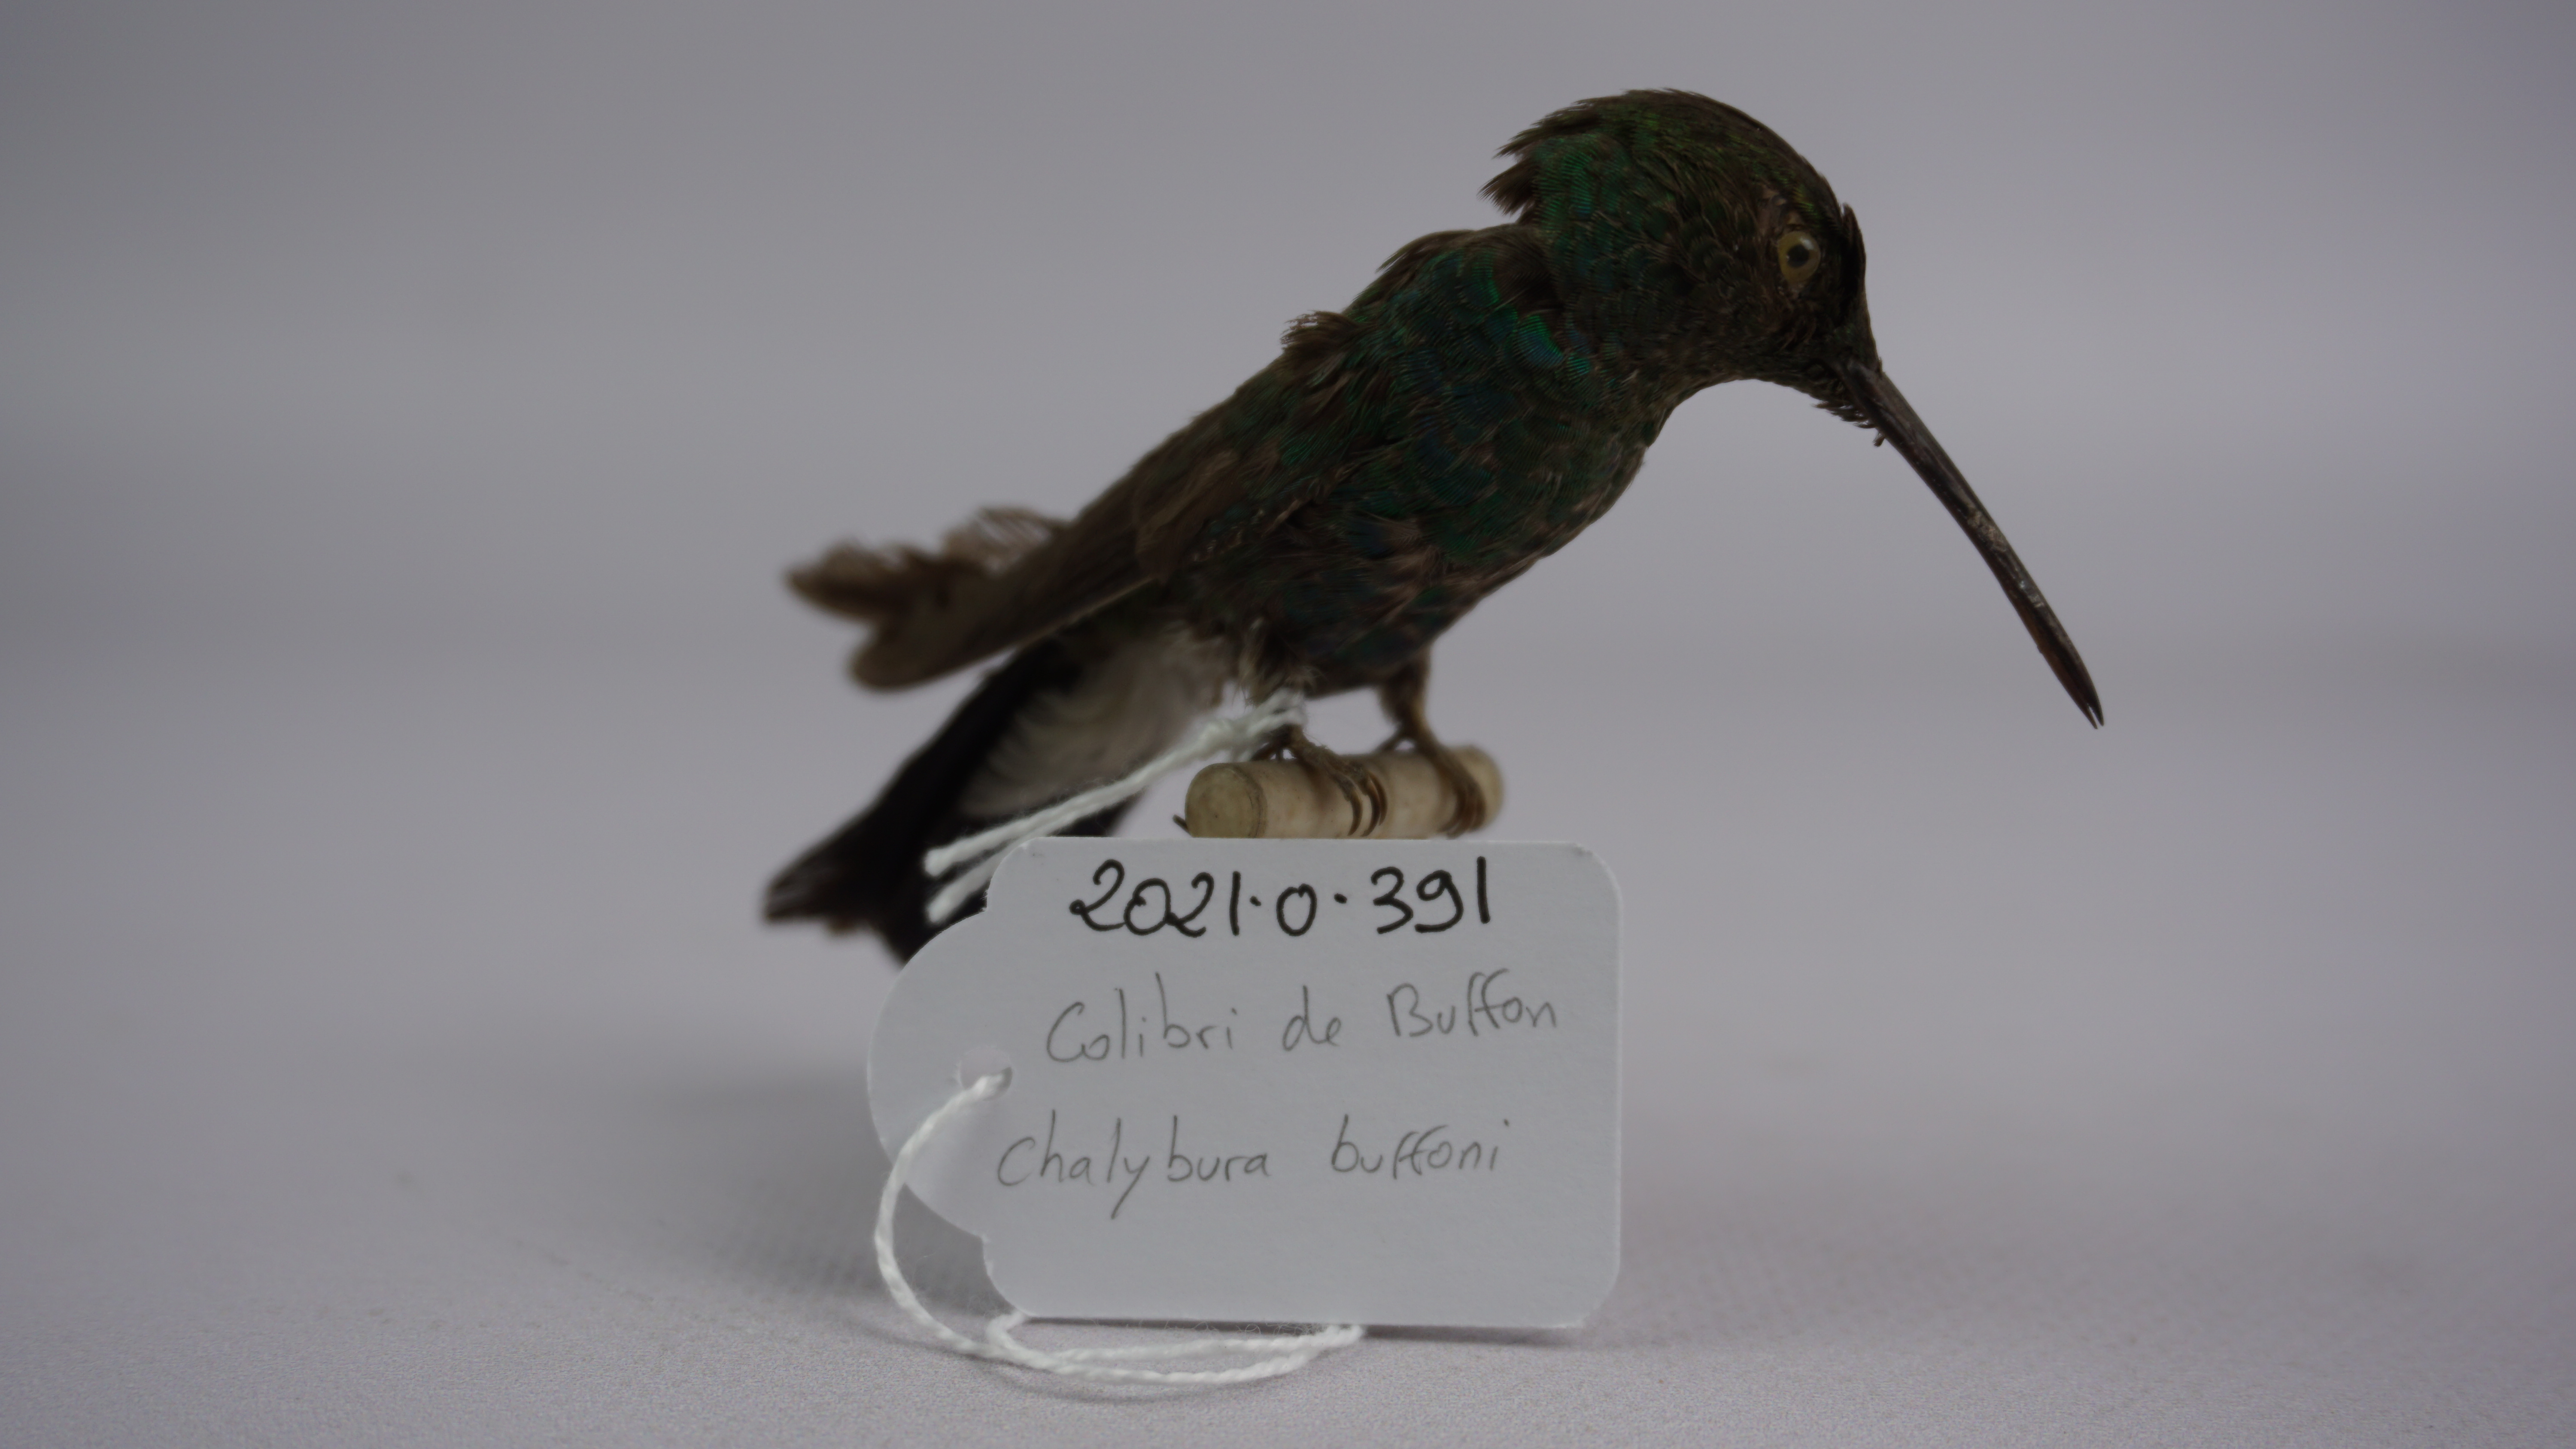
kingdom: Animalia
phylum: Chordata
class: Aves
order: Apodiformes
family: Trochilidae
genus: Chalybura
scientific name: Chalybura buffonii
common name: White-vented plumeleteer
